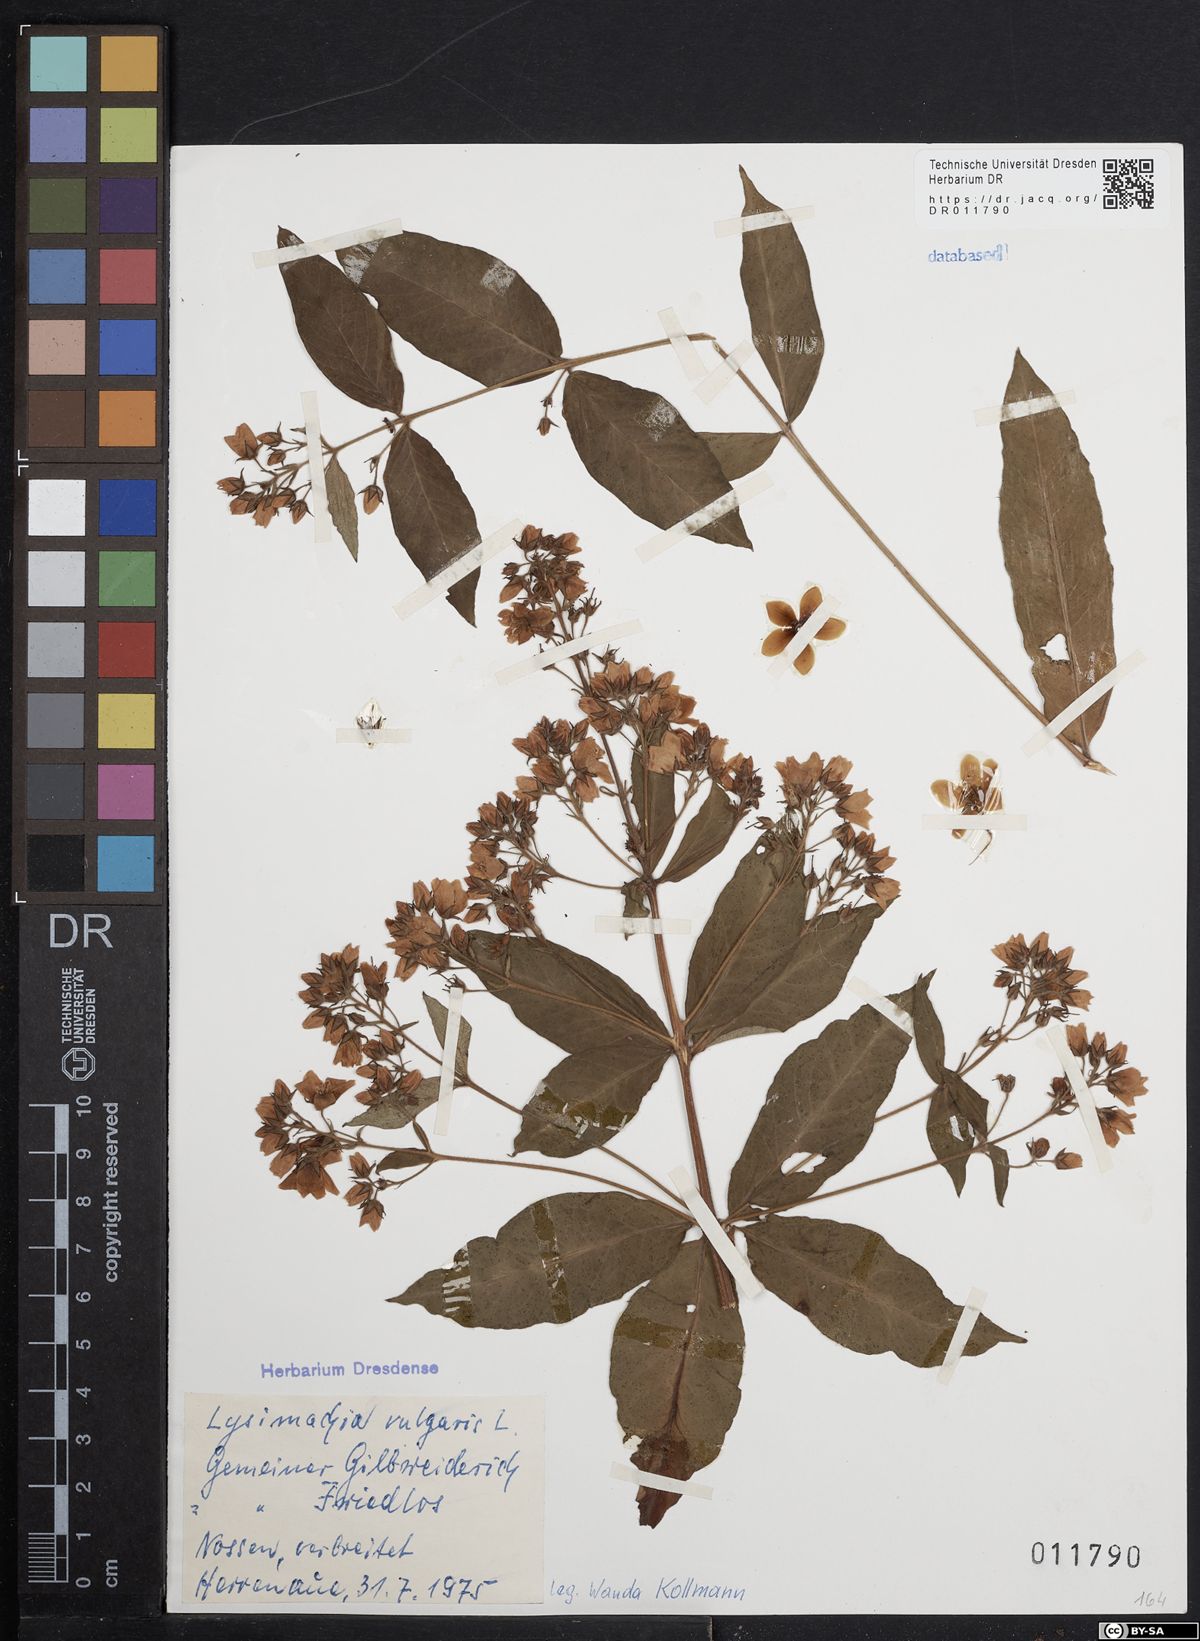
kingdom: Plantae
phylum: Tracheophyta
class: Magnoliopsida
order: Ericales
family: Primulaceae
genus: Lysimachia
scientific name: Lysimachia vulgaris
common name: Yellow loosestrife
